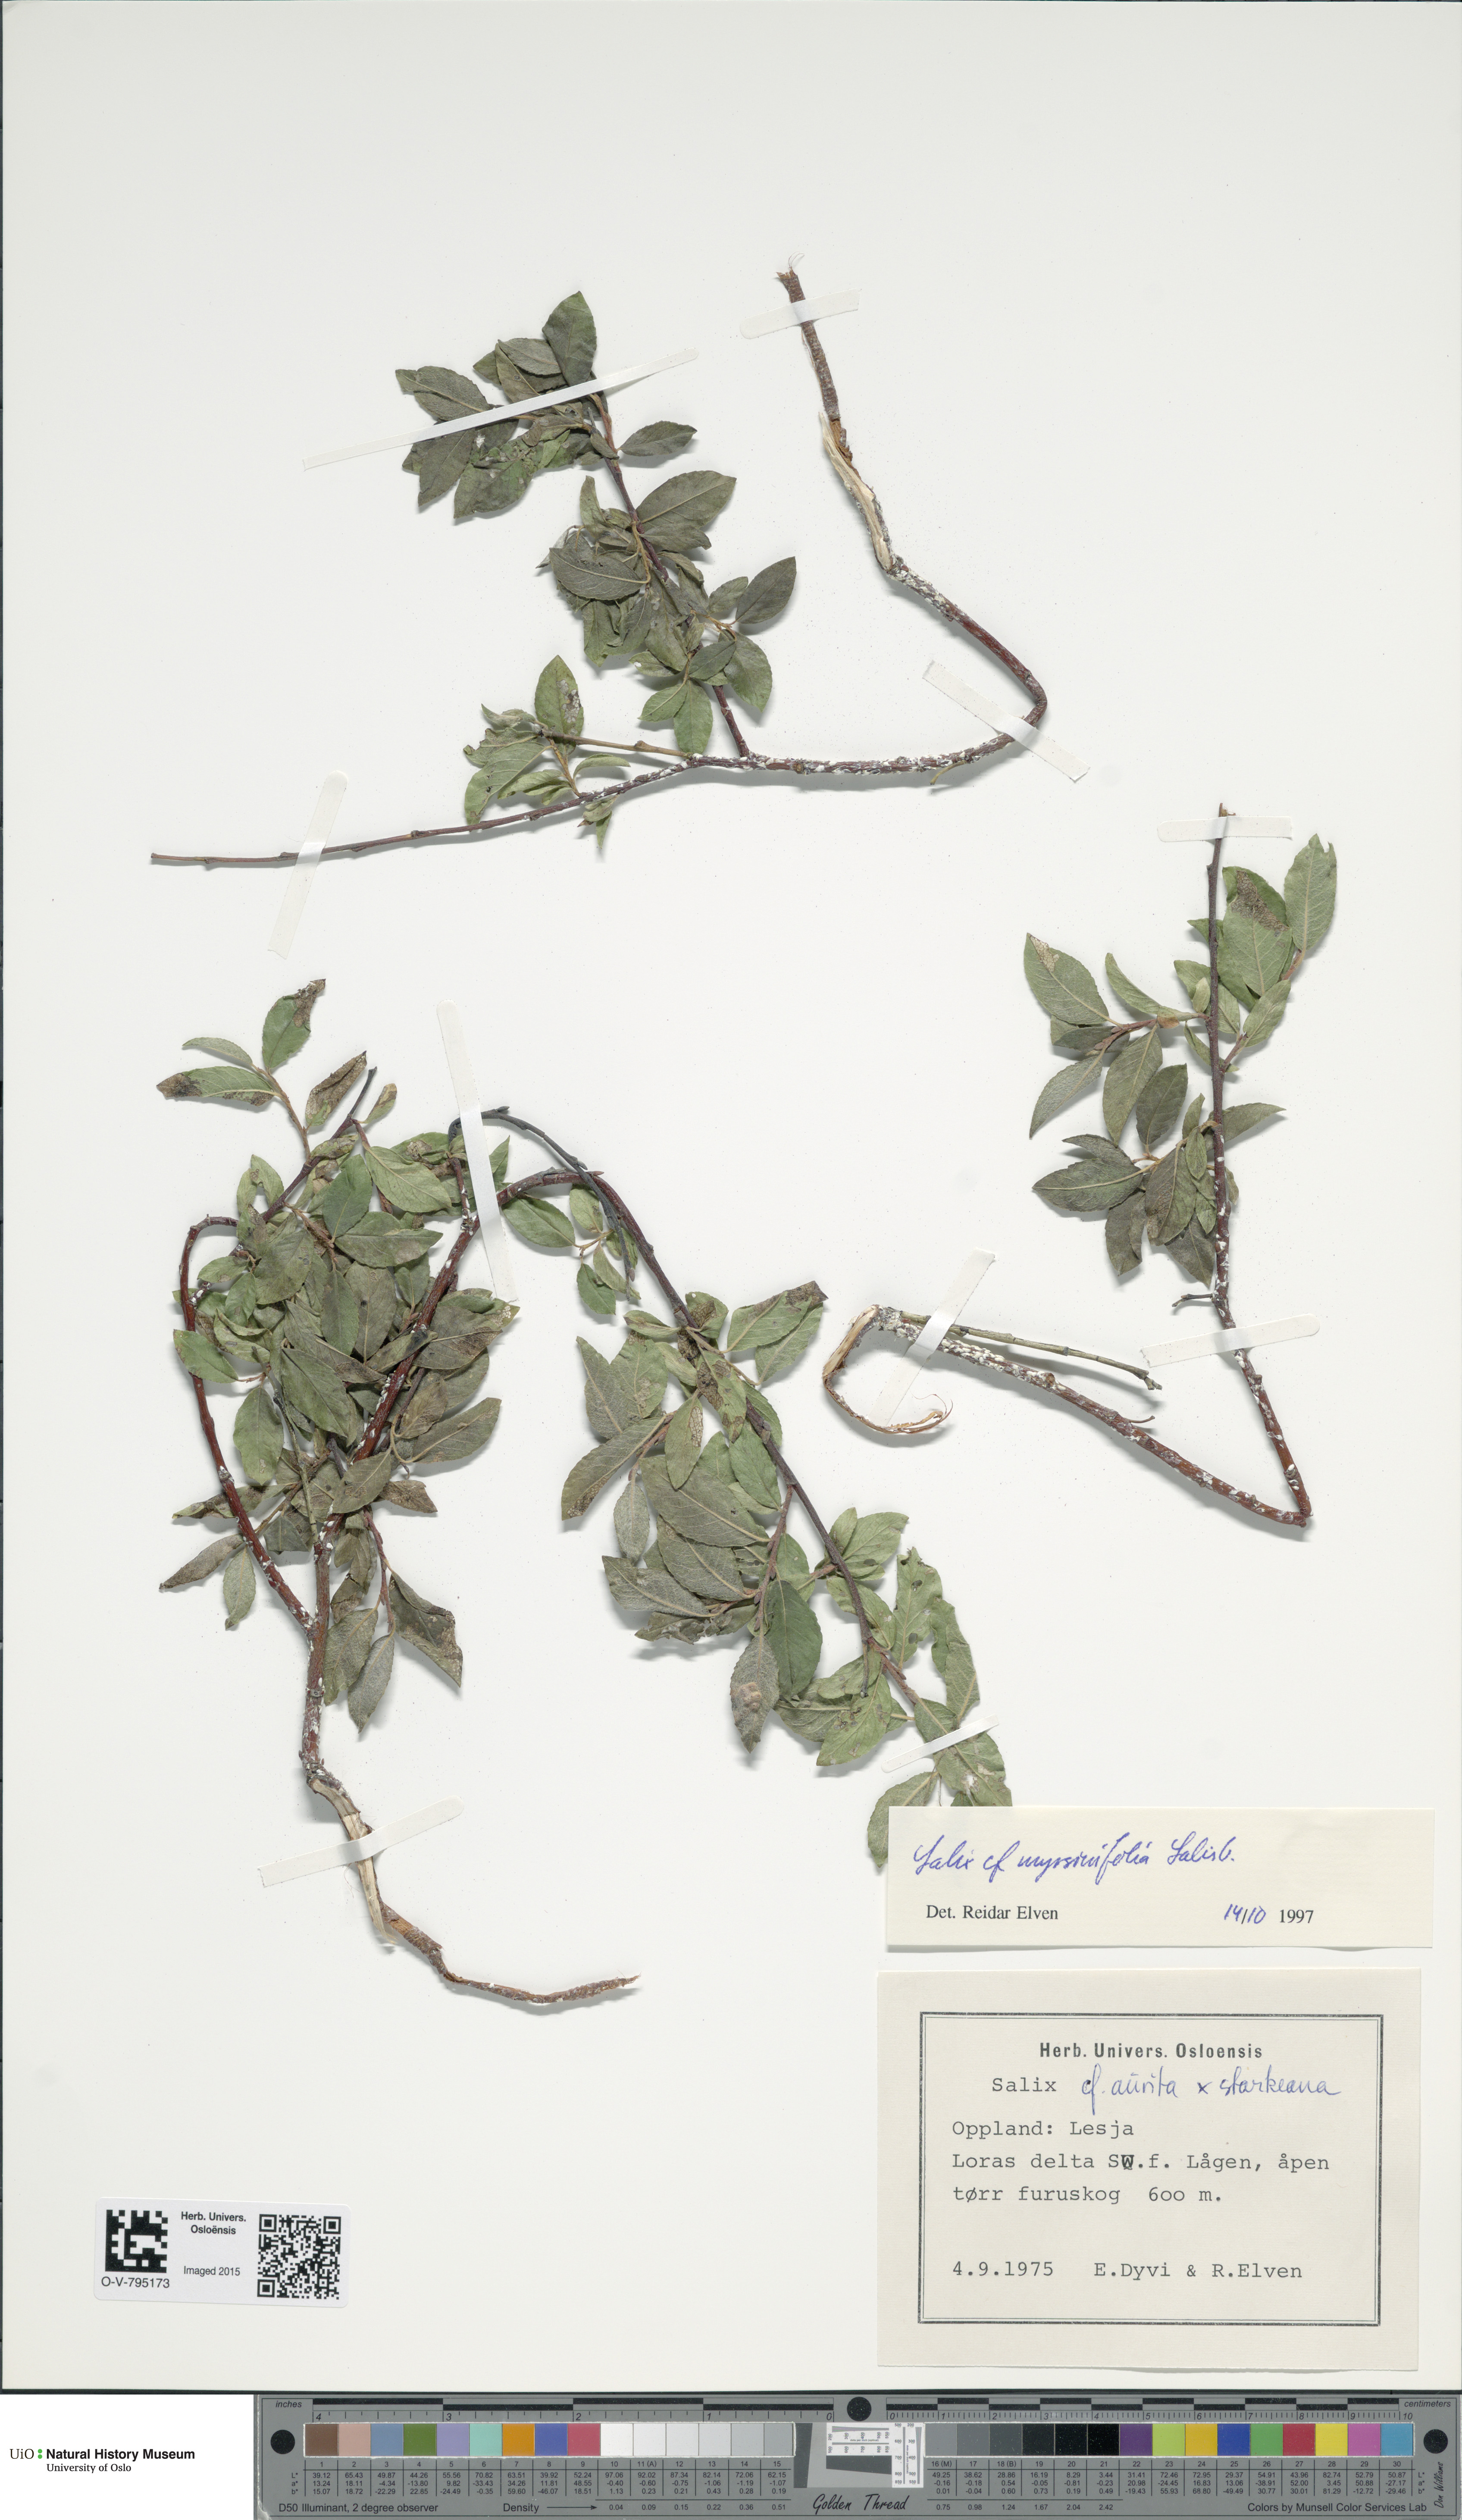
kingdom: Plantae
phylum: Tracheophyta
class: Magnoliopsida
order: Malpighiales
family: Salicaceae
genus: Salix
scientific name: Salix myrsinifolia
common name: Dark-leaved willow
